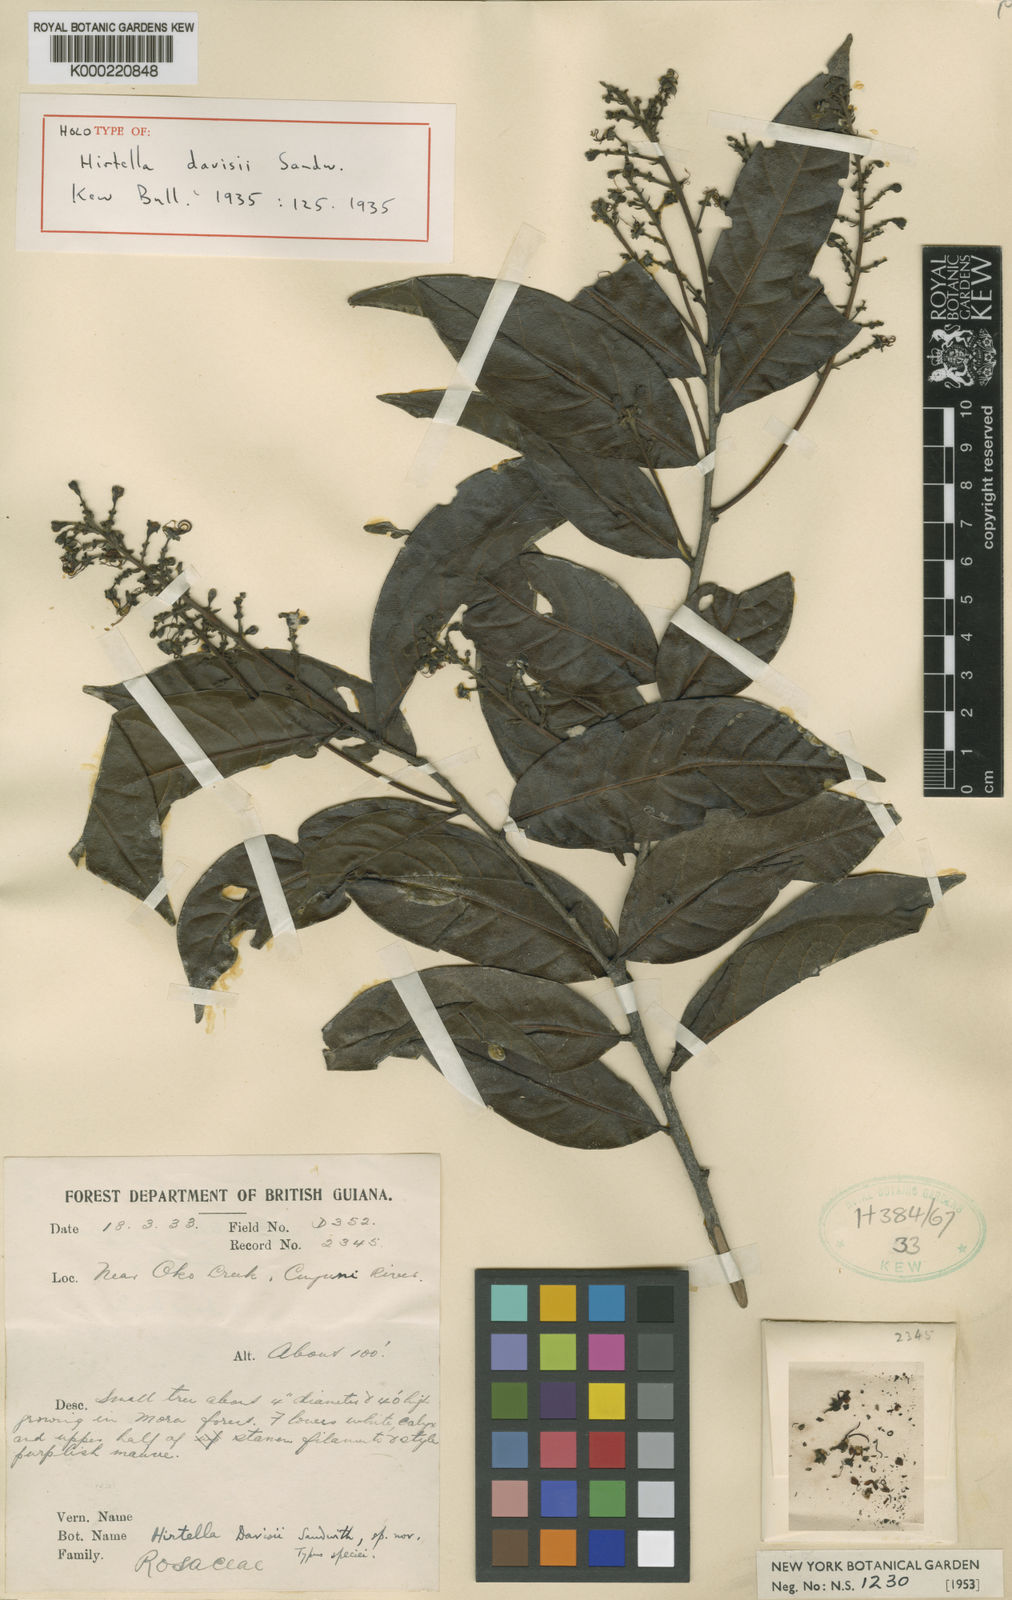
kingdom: Plantae
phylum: Tracheophyta
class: Magnoliopsida
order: Malpighiales
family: Chrysobalanaceae
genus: Hirtella
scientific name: Hirtella davisii
